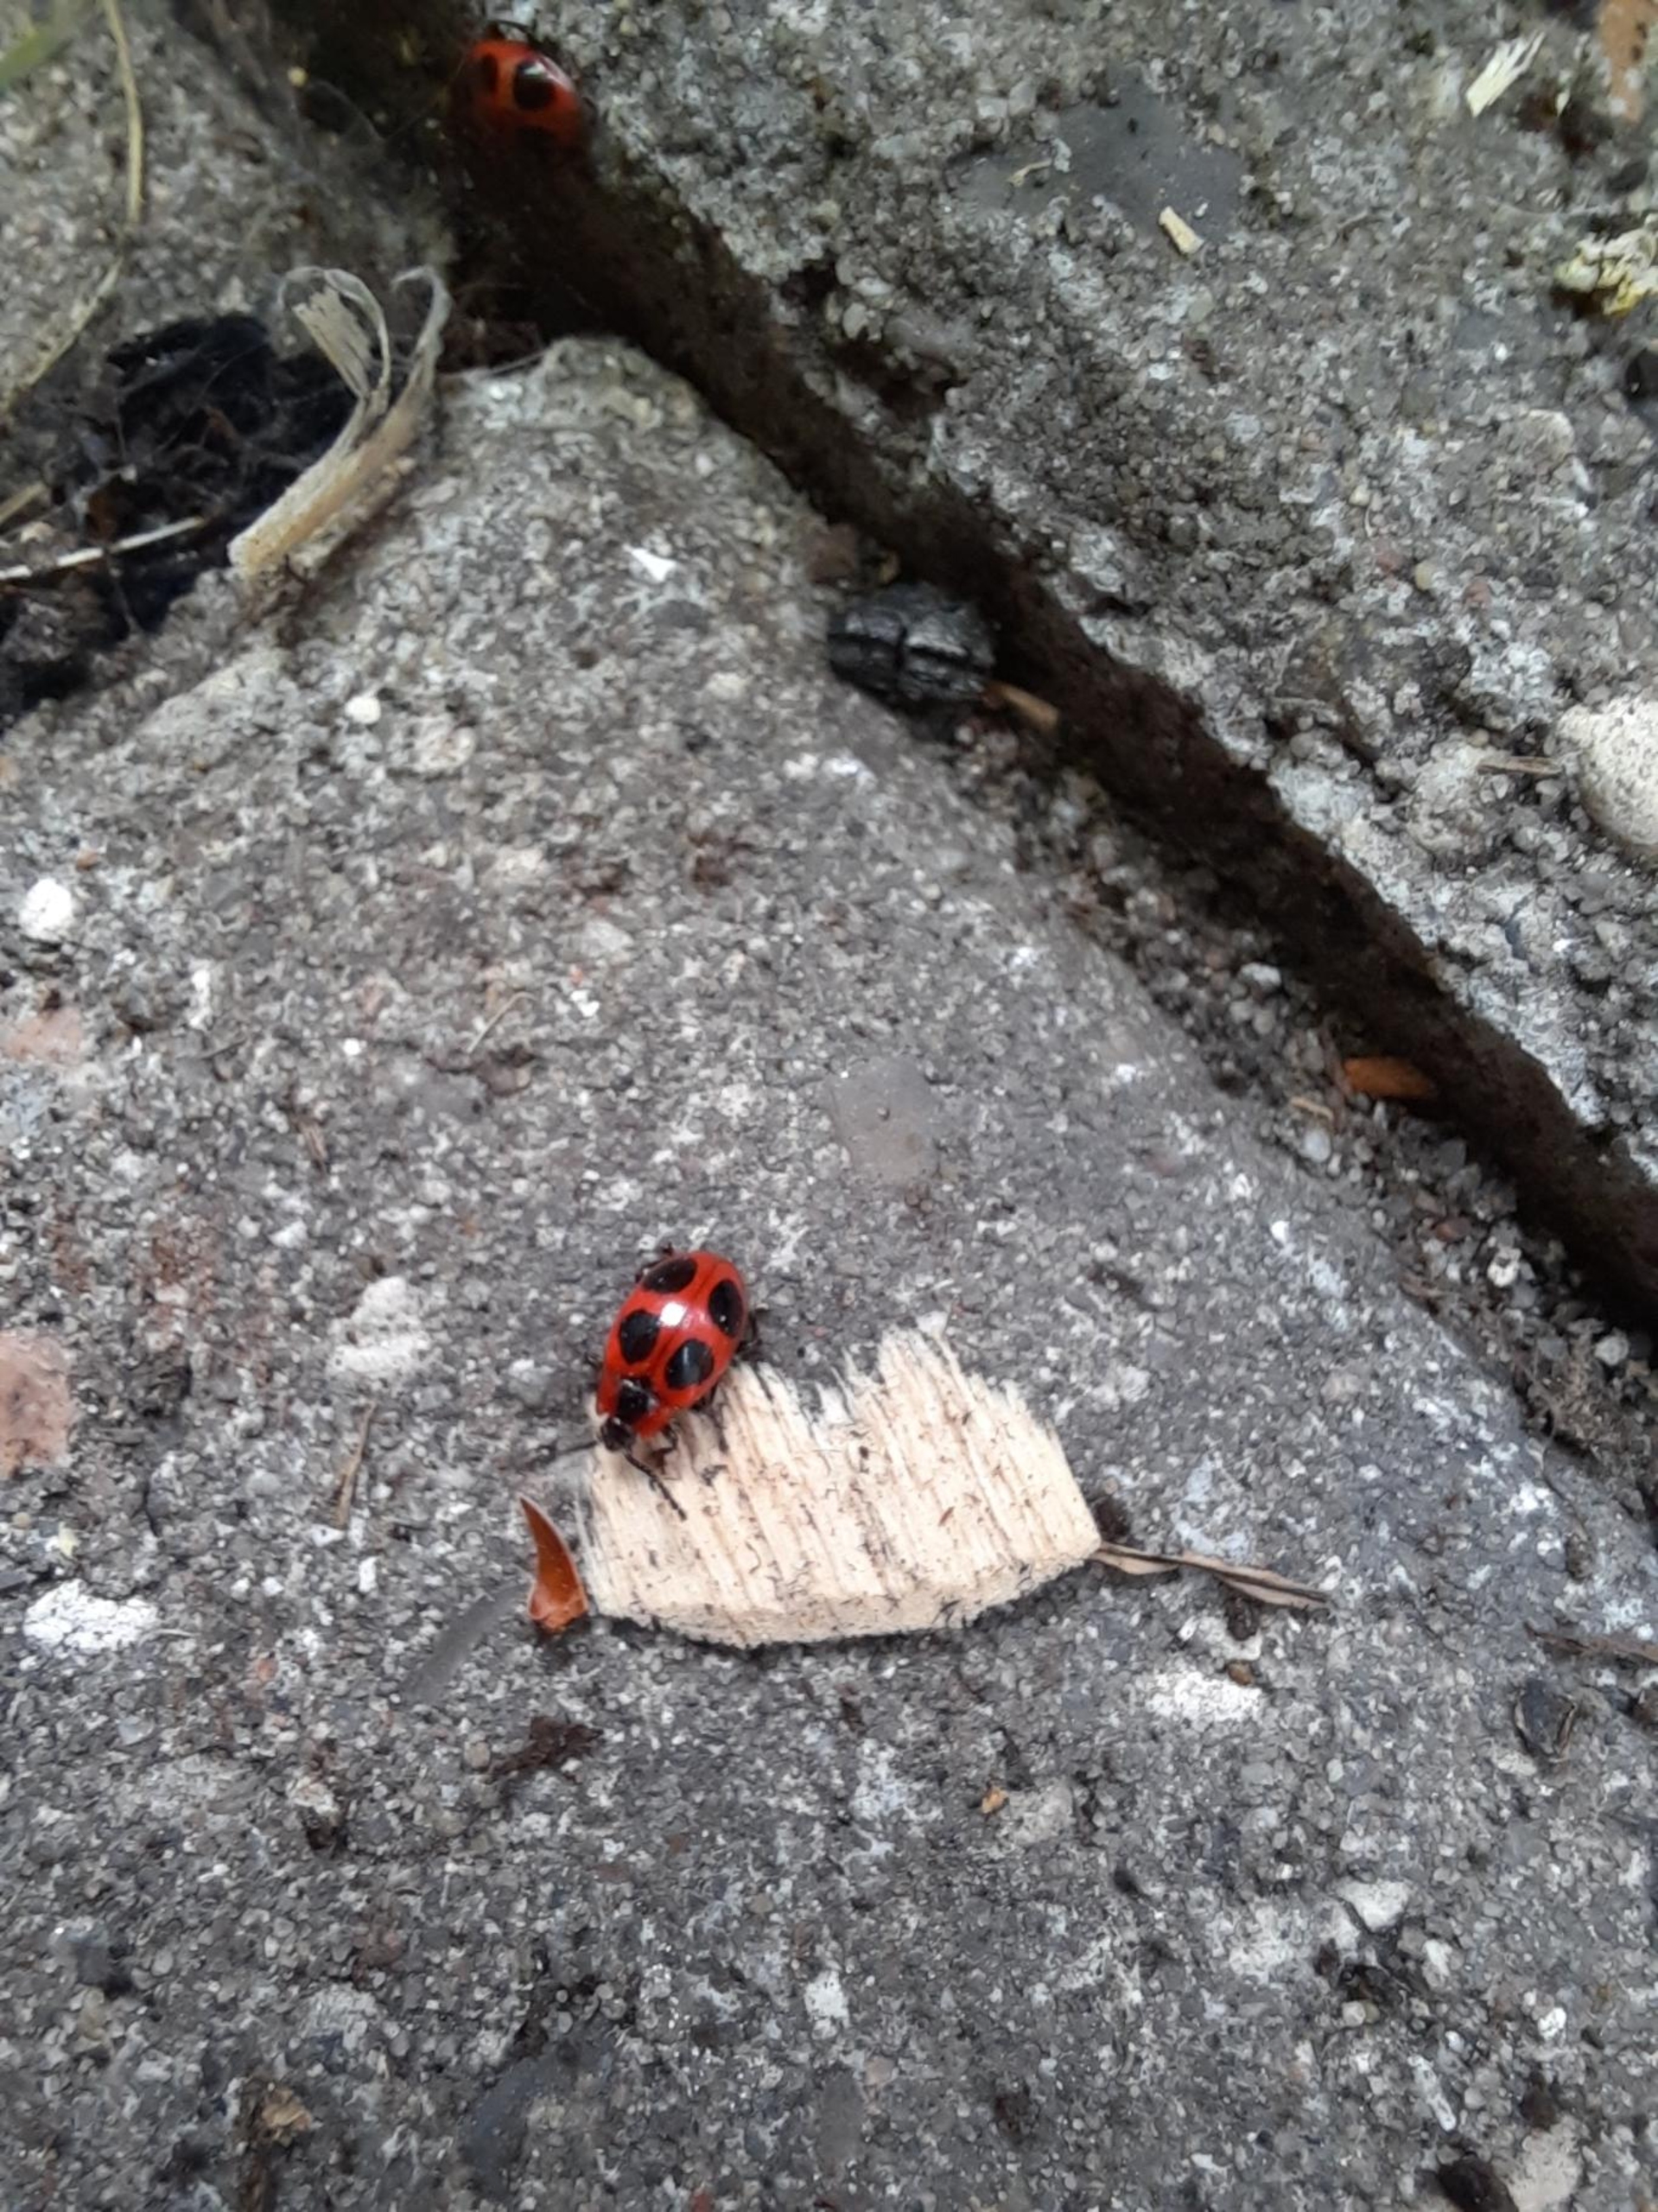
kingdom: Animalia
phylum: Arthropoda
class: Insecta
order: Coleoptera
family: Endomychidae
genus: Endomychus
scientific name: Endomychus coccineus
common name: Skarlagensvampehøne
